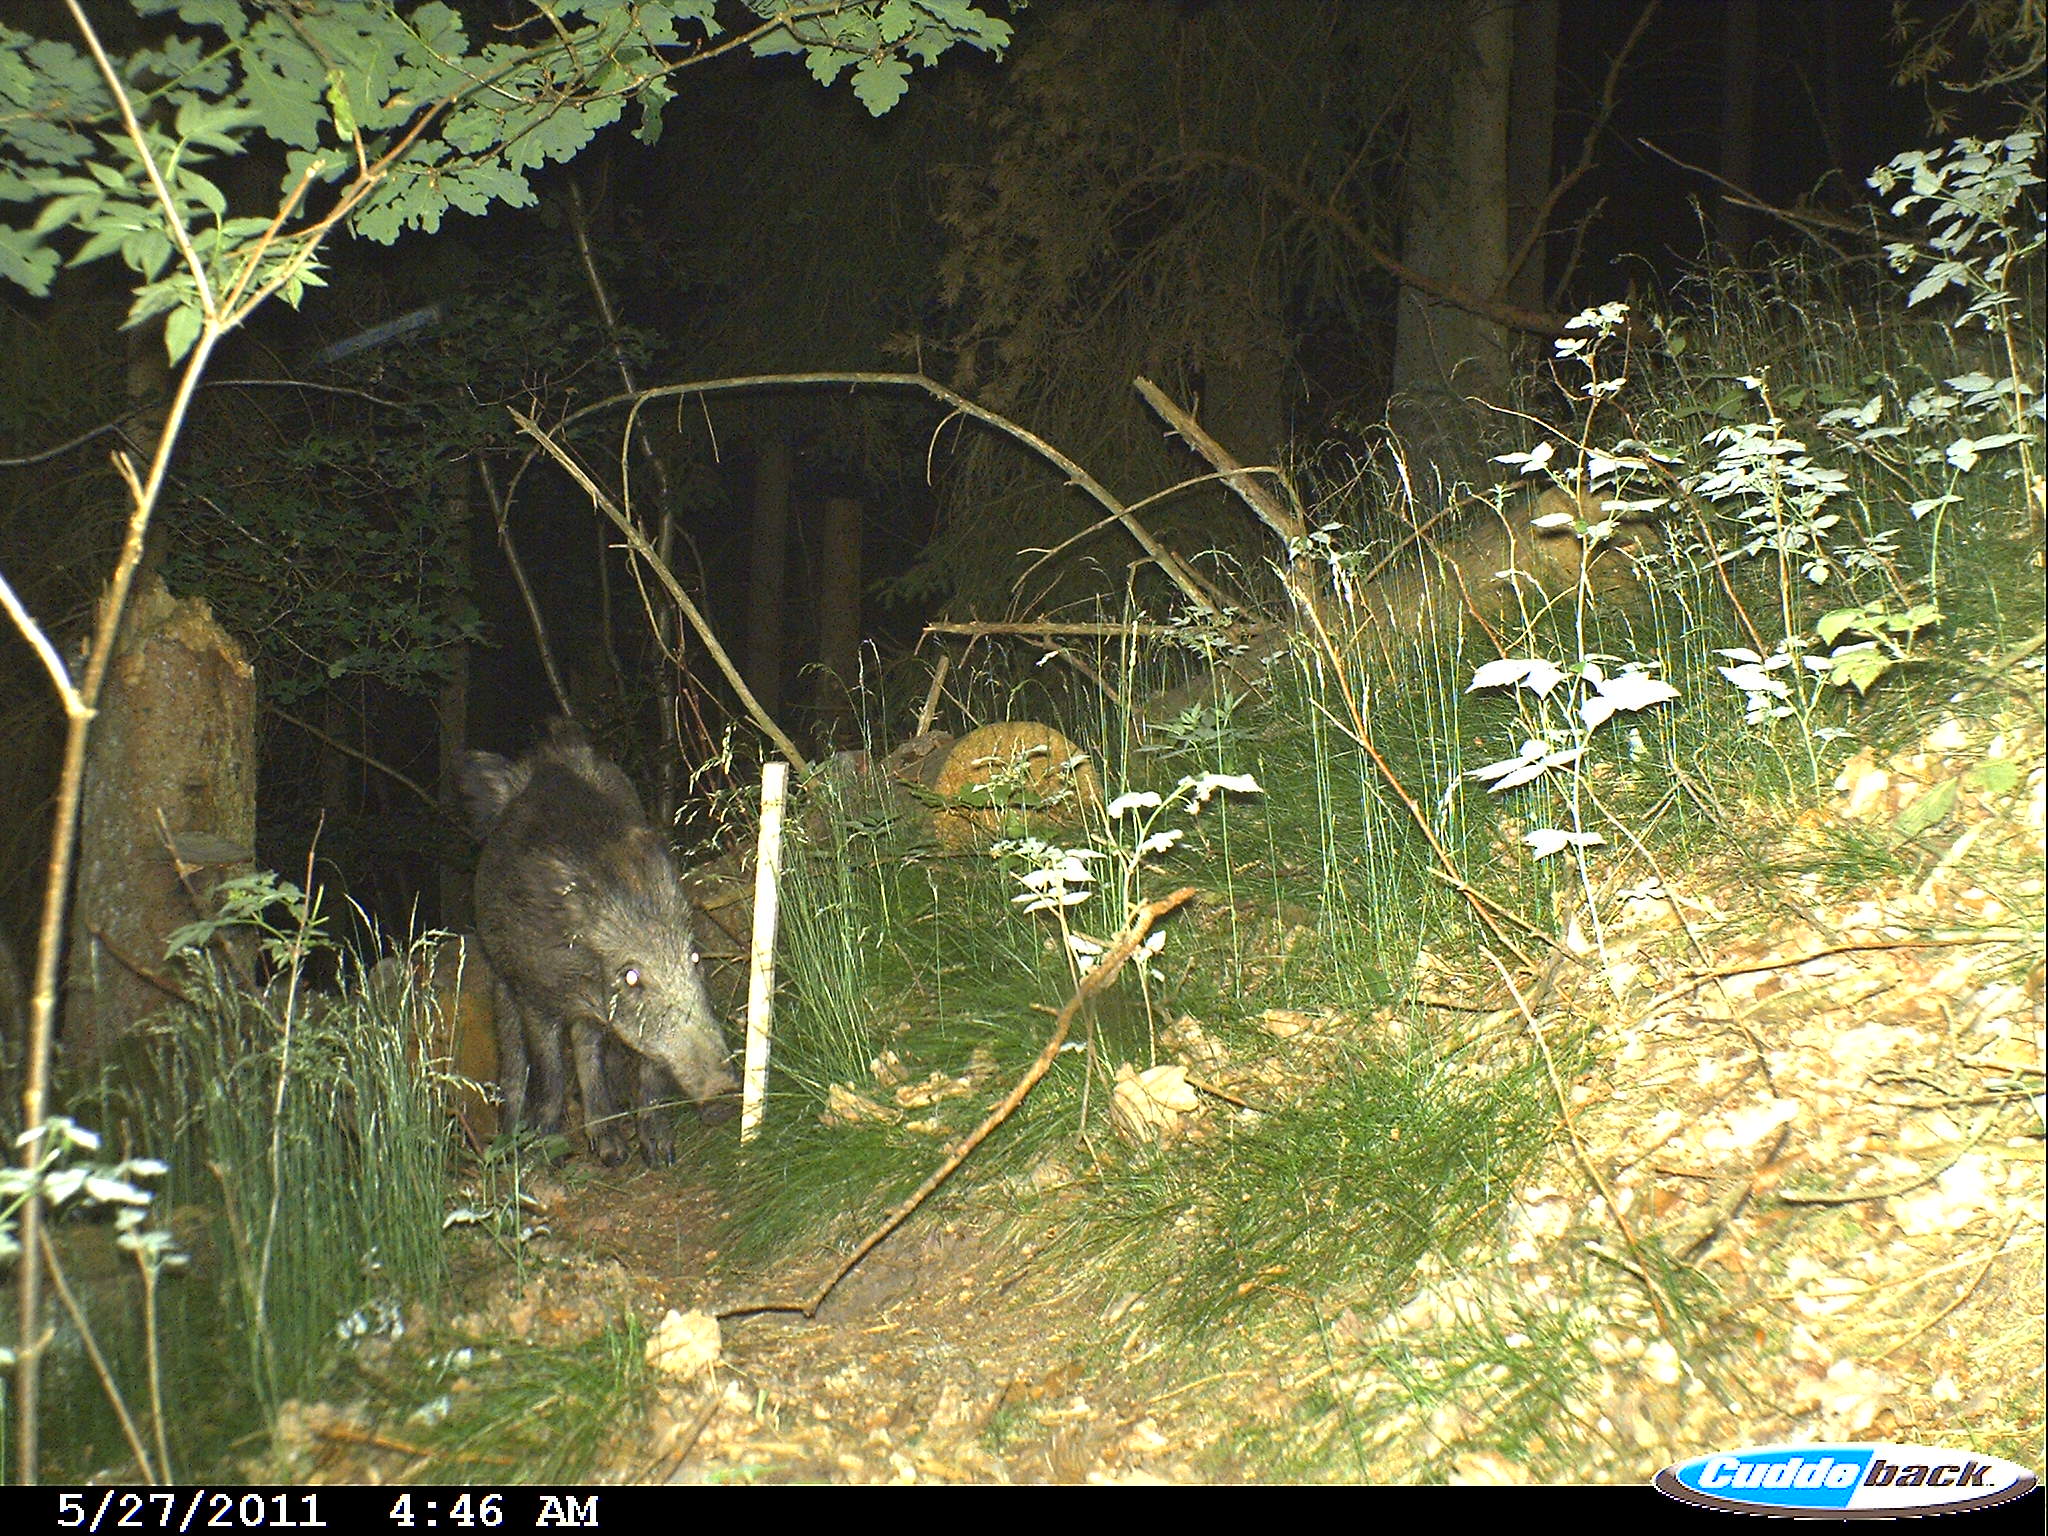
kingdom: Animalia
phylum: Chordata
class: Mammalia
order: Artiodactyla
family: Suidae
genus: Sus
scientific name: Sus scrofa
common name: Wild boar
